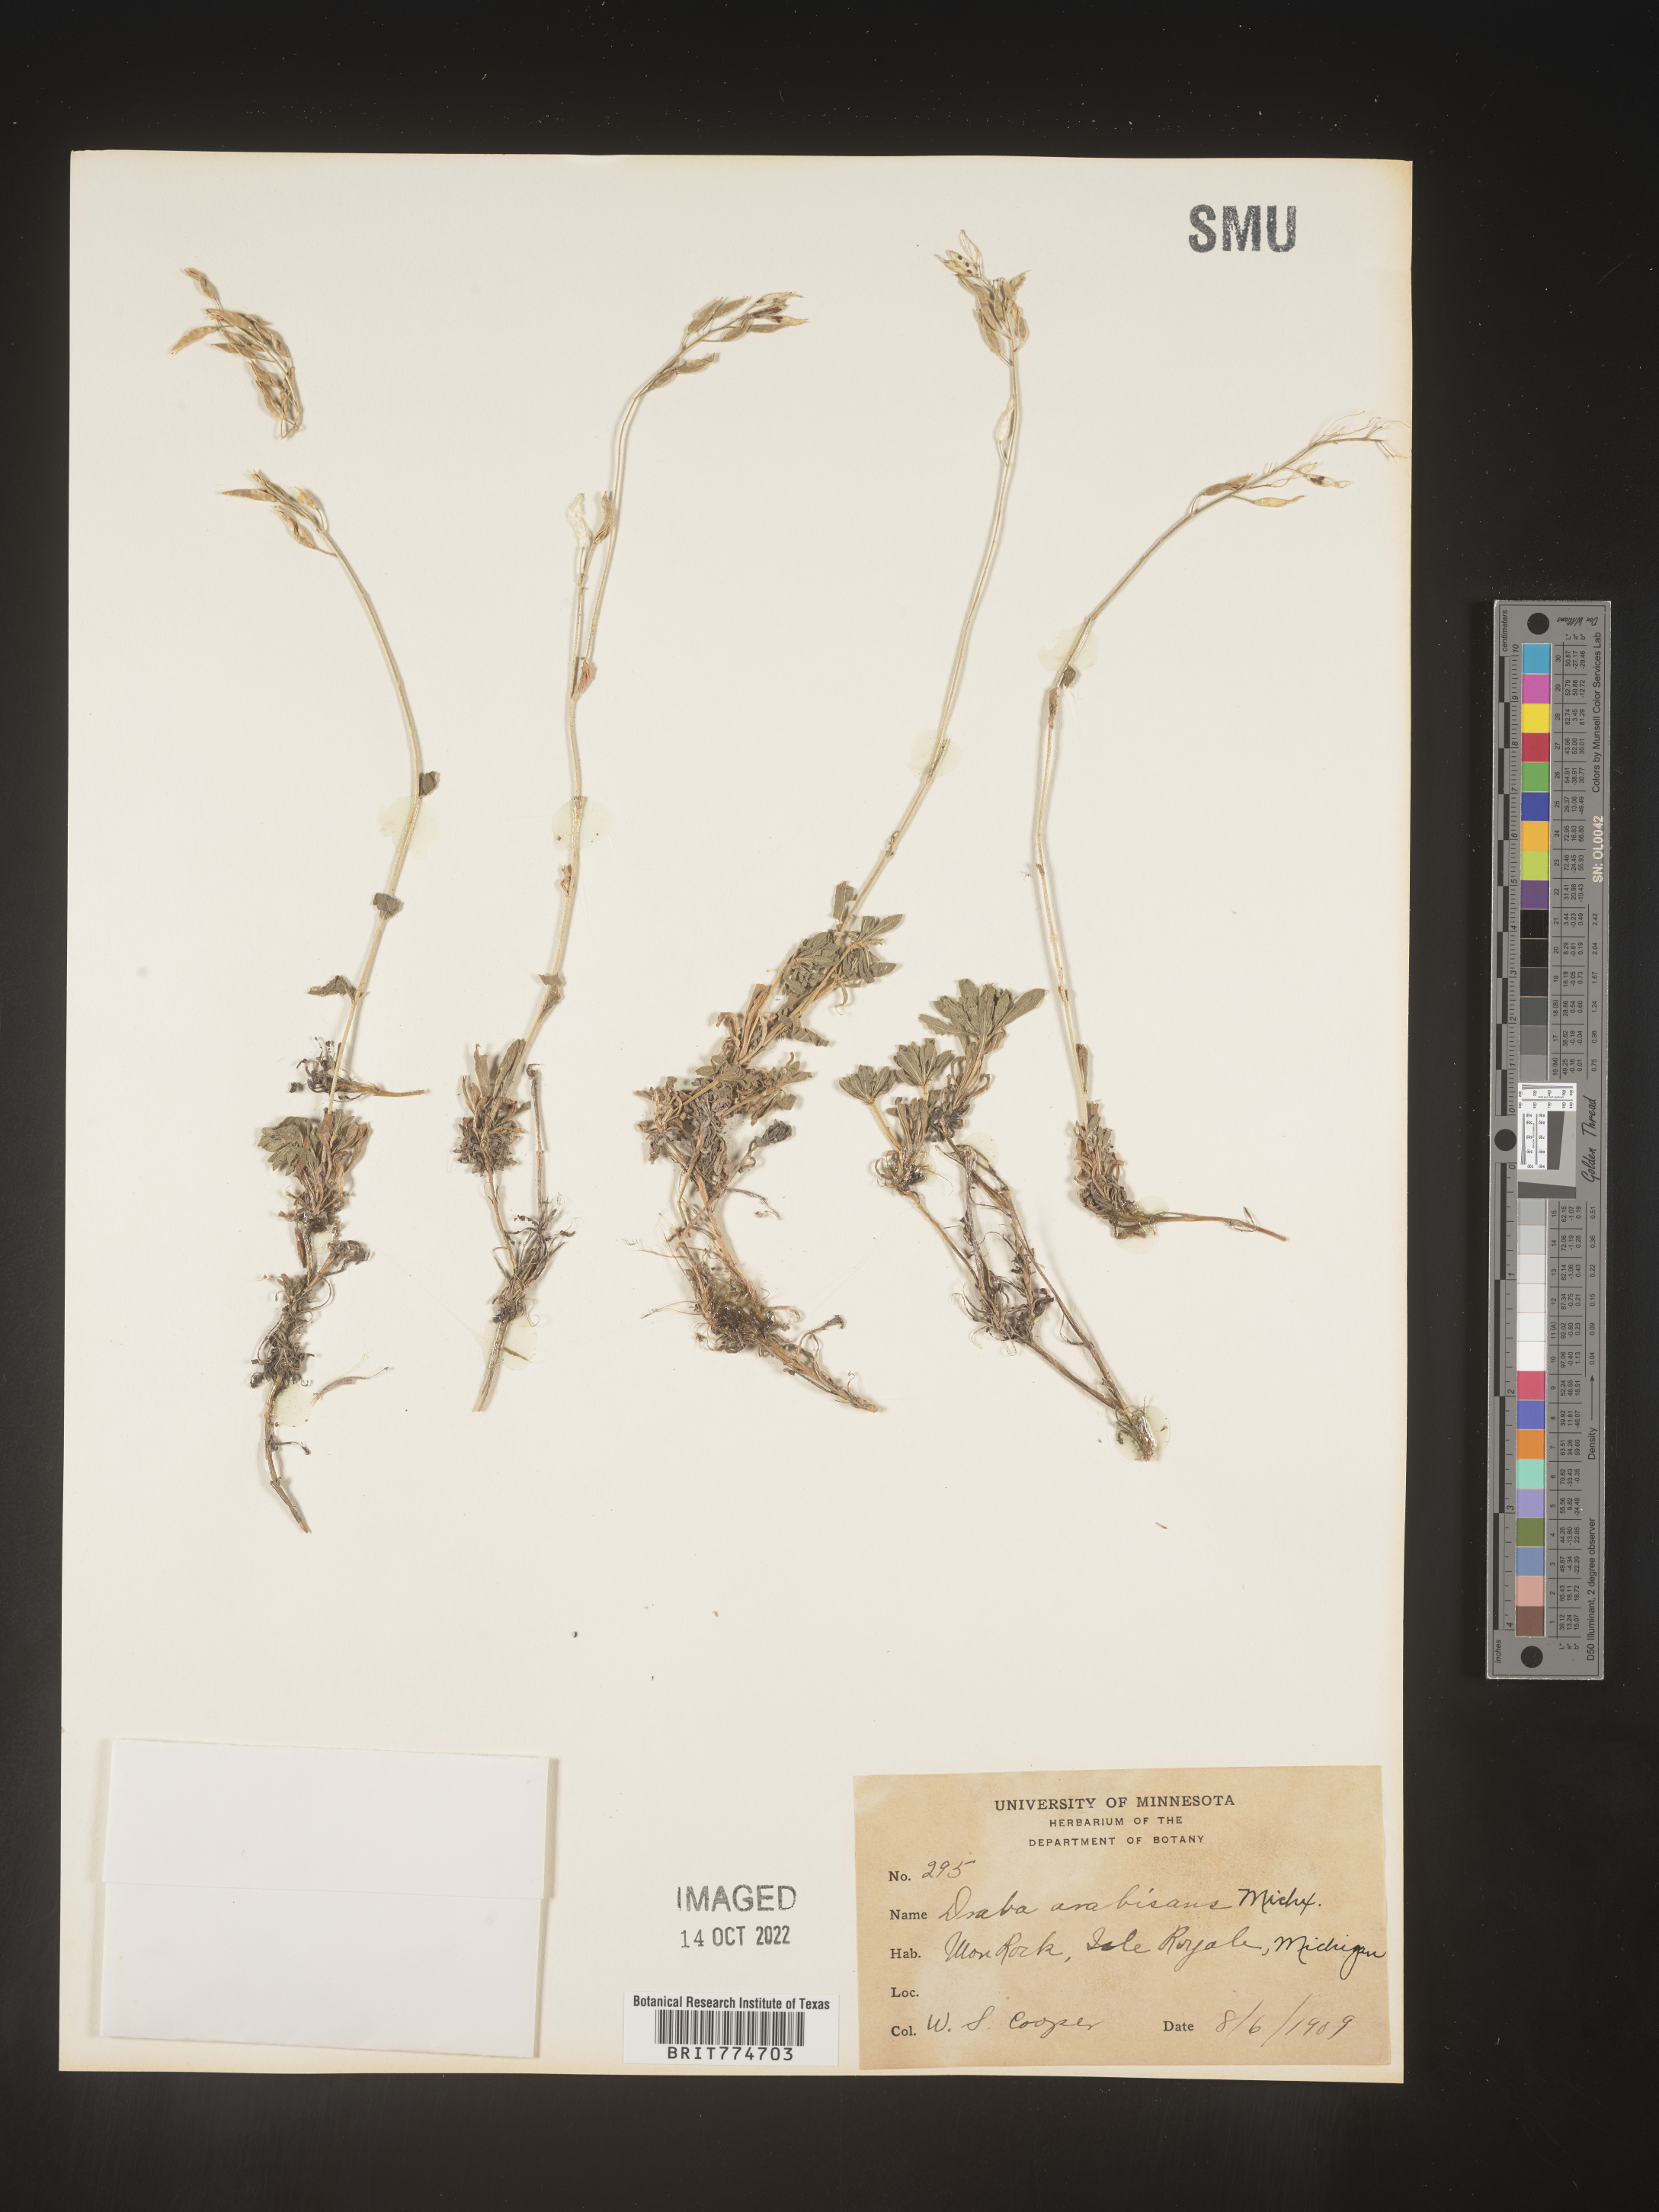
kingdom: Plantae
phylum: Tracheophyta
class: Magnoliopsida
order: Brassicales
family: Brassicaceae
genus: Draba
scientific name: Draba
